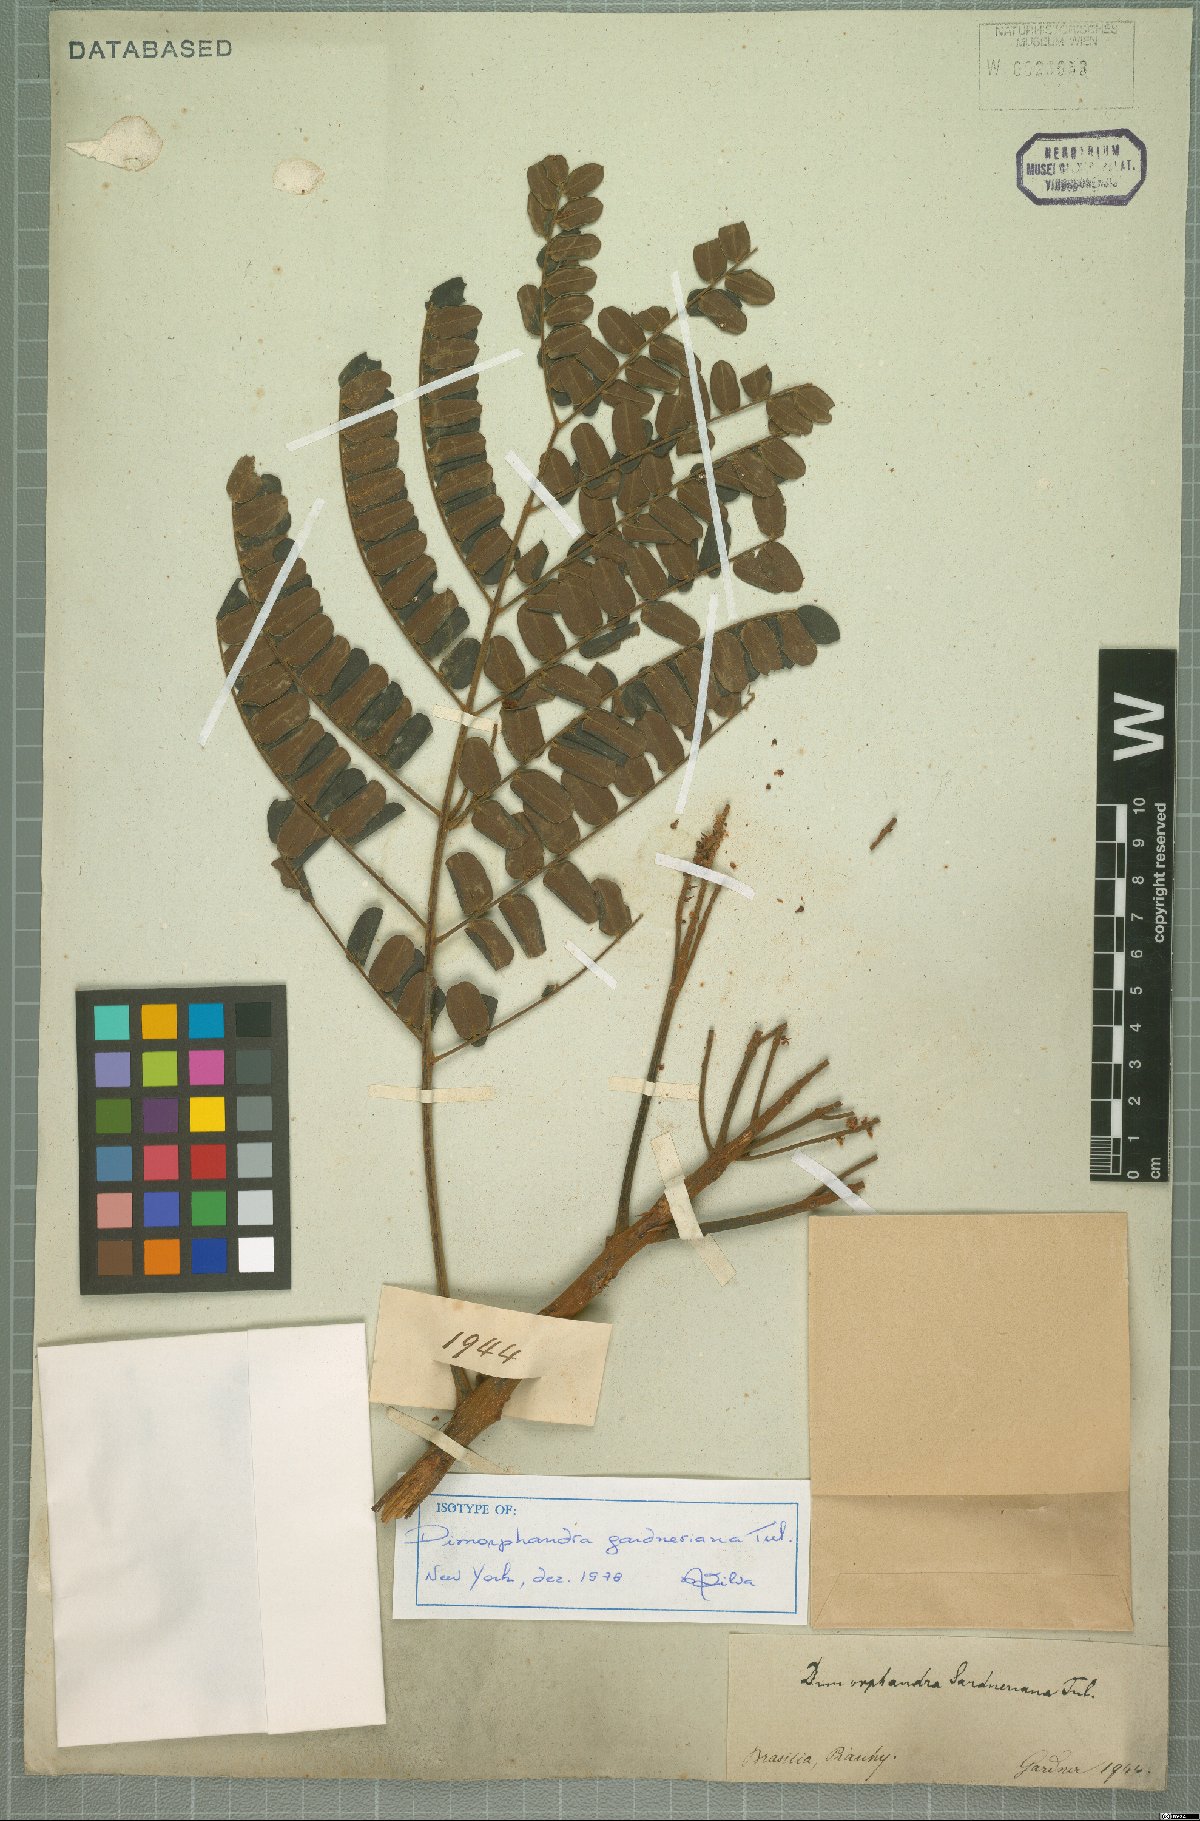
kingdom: Plantae
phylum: Tracheophyta
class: Magnoliopsida
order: Fabales
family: Fabaceae
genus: Dimorphandra
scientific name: Dimorphandra gardneriana
